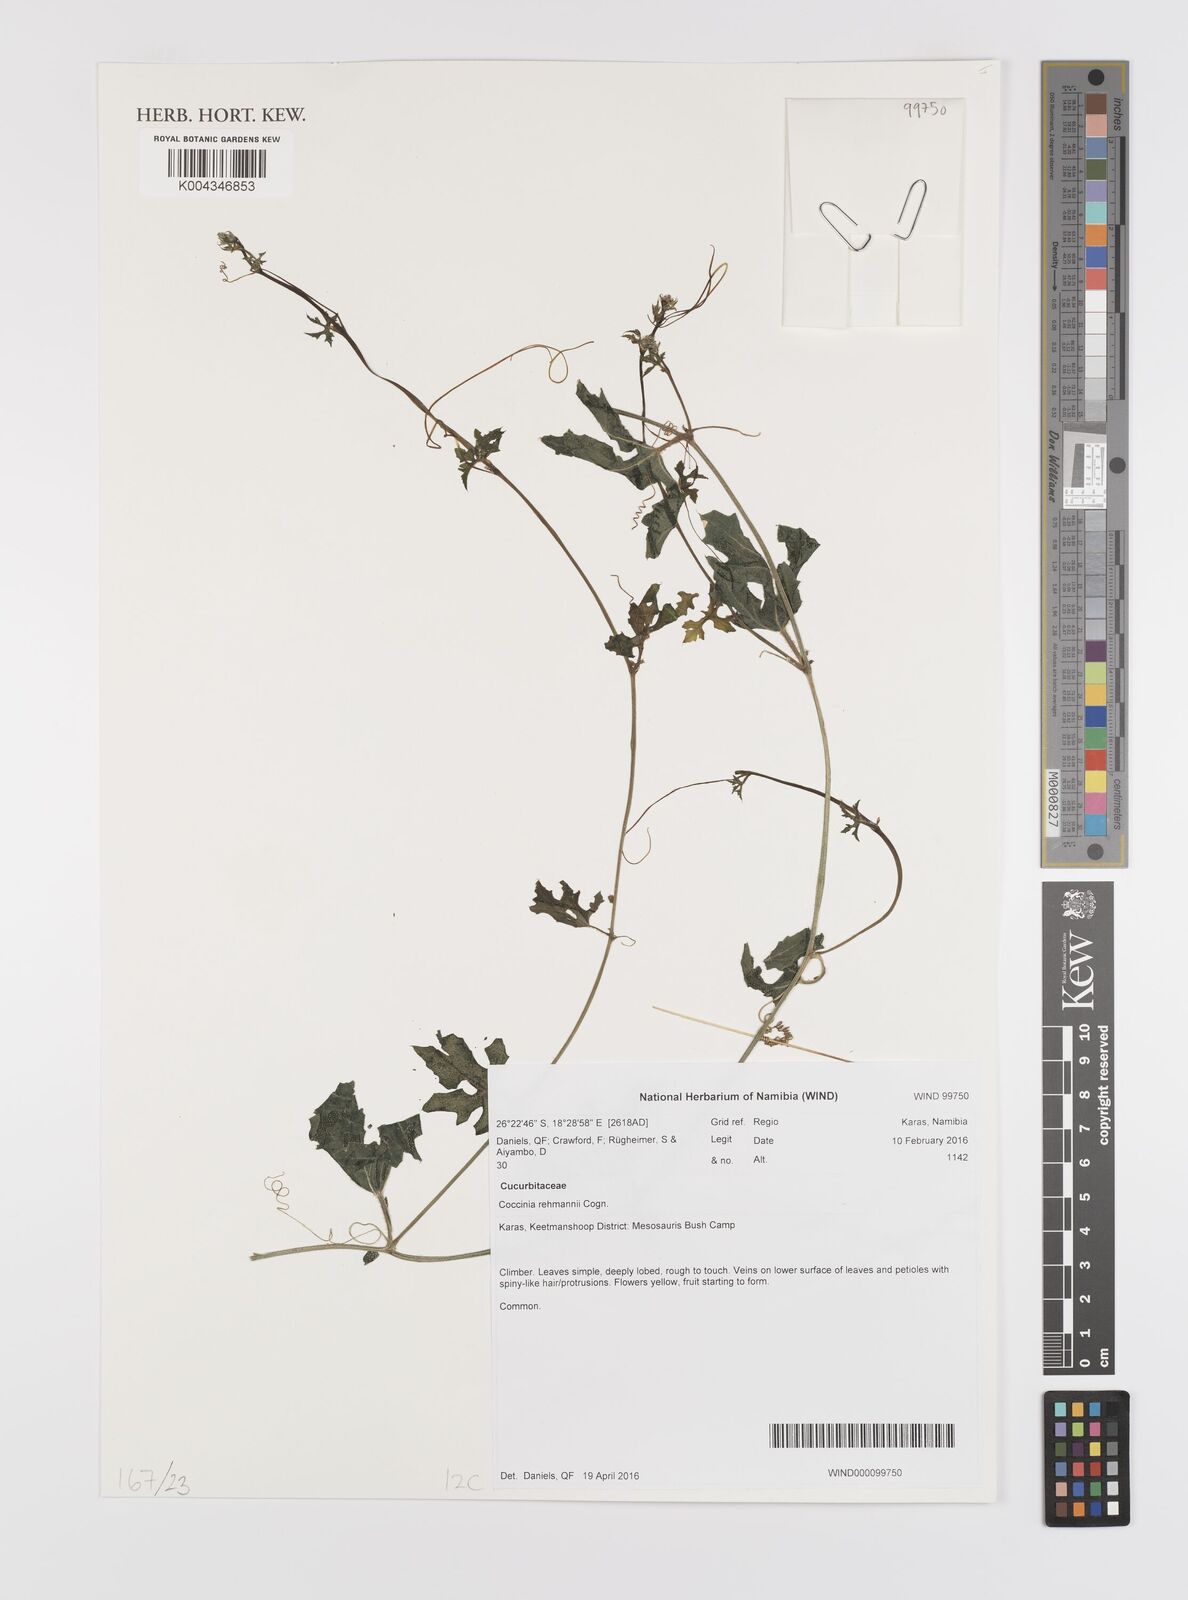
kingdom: Plantae
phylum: Tracheophyta
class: Magnoliopsida
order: Cucurbitales
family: Cucurbitaceae
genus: Coccinia
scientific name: Coccinia rehmannii
